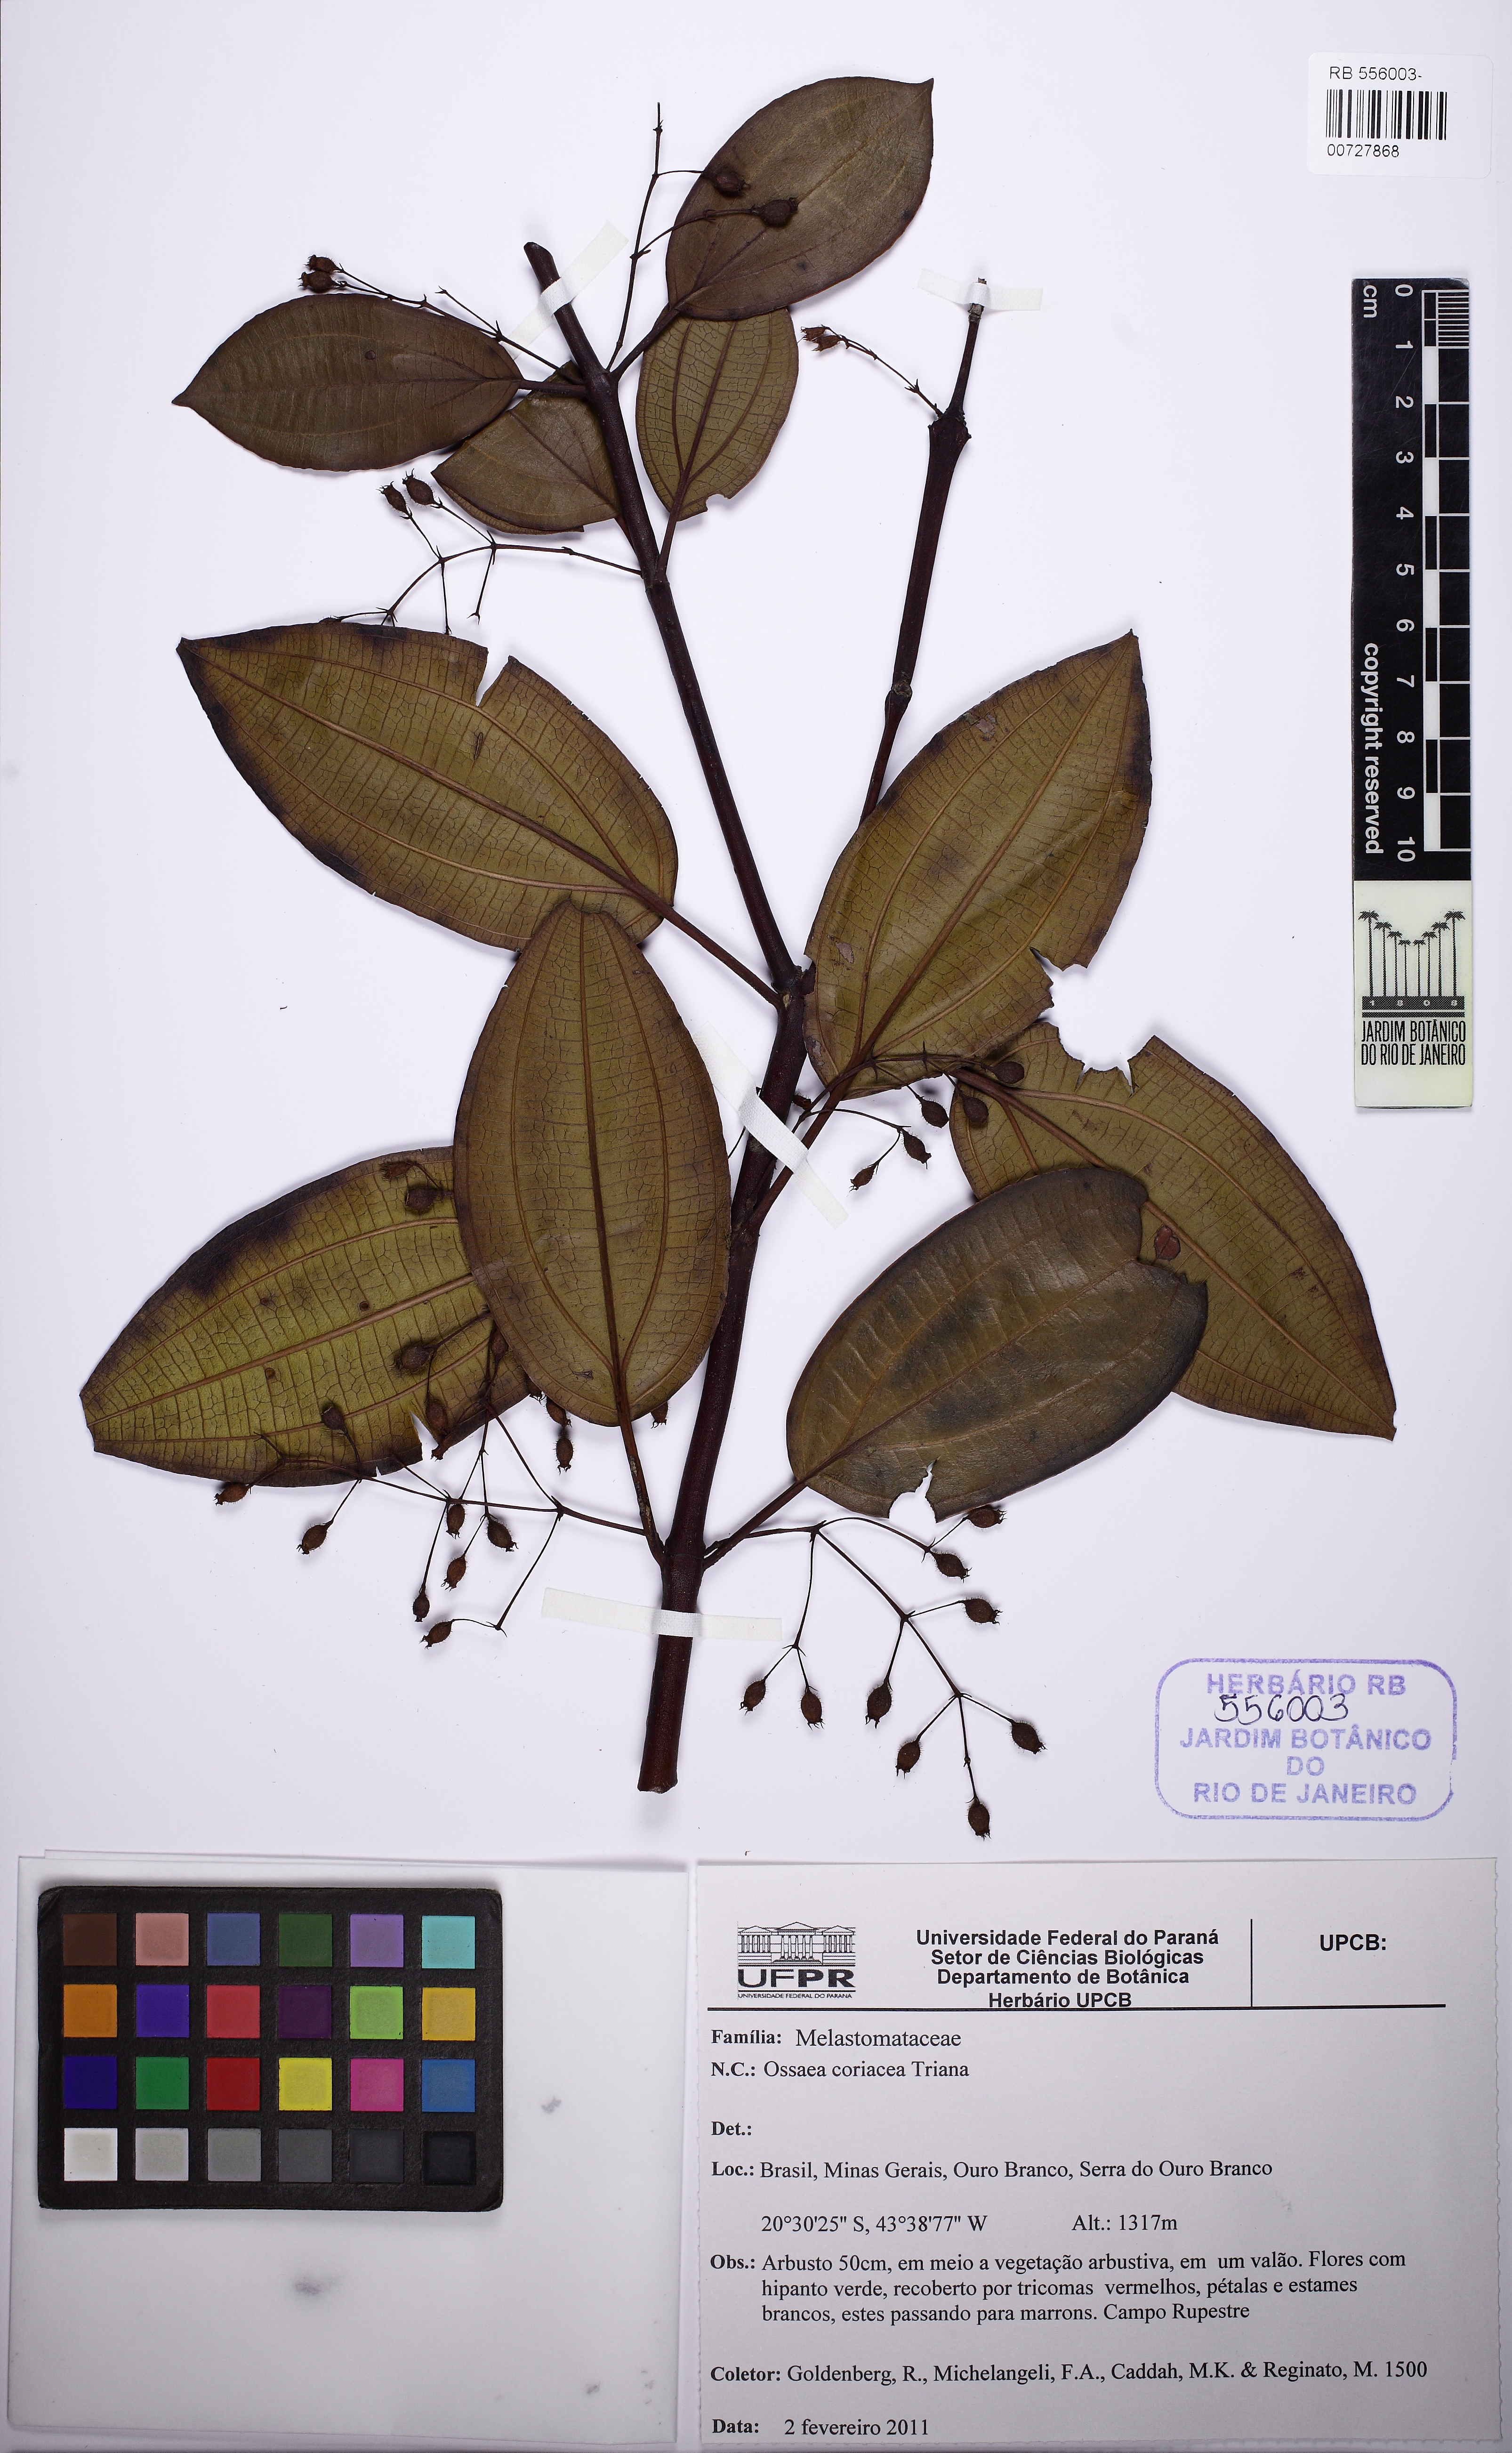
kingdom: Plantae
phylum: Tracheophyta
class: Magnoliopsida
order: Myrtales
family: Melastomataceae
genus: Miconia
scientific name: Miconia leabiscoriacea
